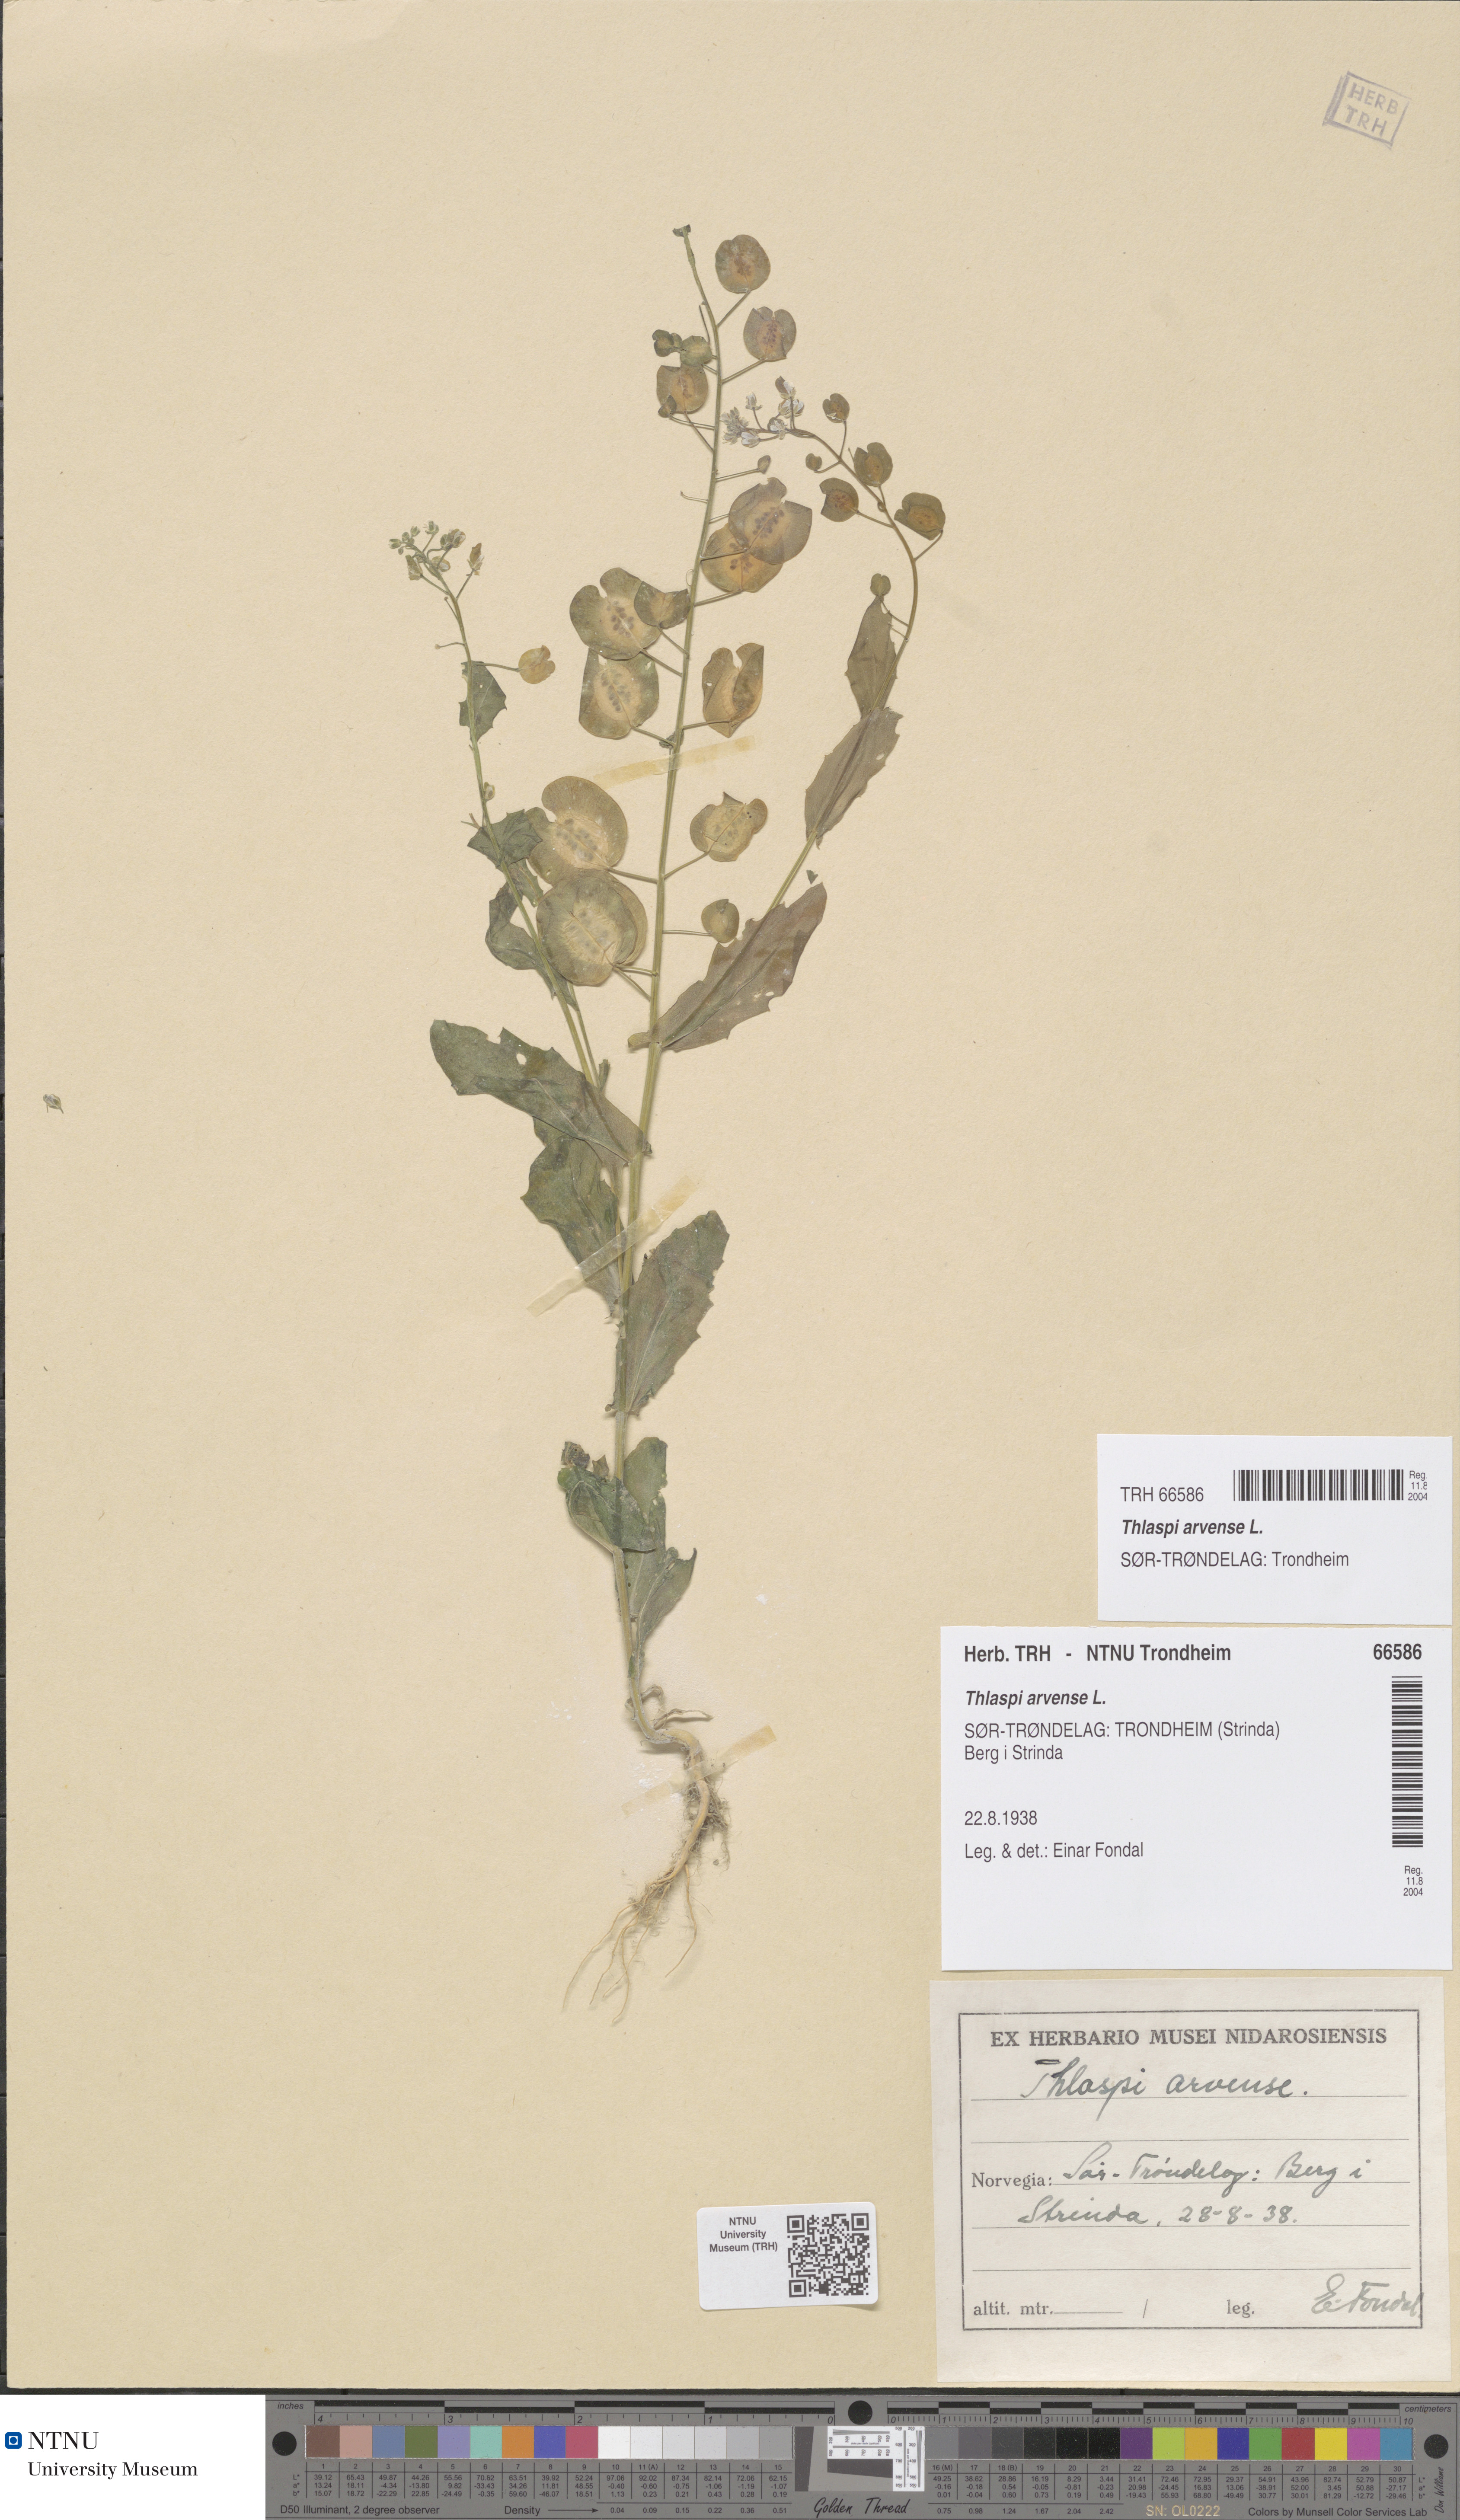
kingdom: Plantae
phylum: Tracheophyta
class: Magnoliopsida
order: Brassicales
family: Brassicaceae
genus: Thlaspi
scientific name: Thlaspi arvense
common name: Field pennycress
